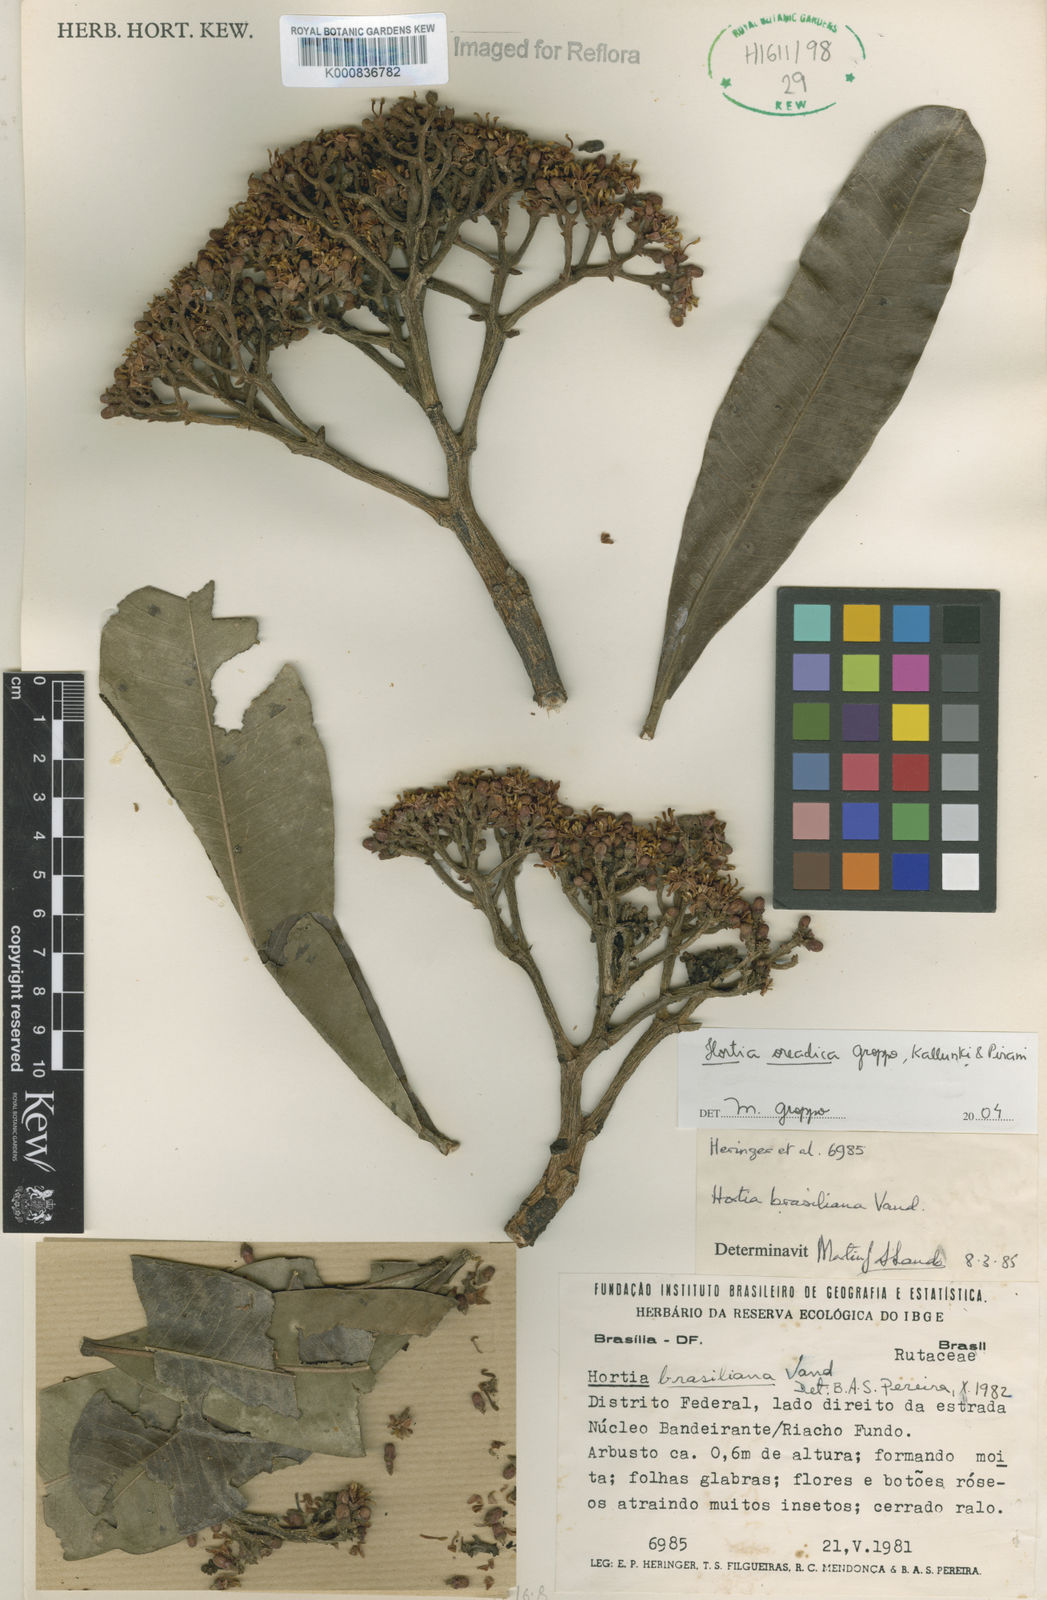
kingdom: Plantae
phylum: Tracheophyta
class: Magnoliopsida
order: Sapindales
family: Rutaceae
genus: Hortia
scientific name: Hortia brasiliana
